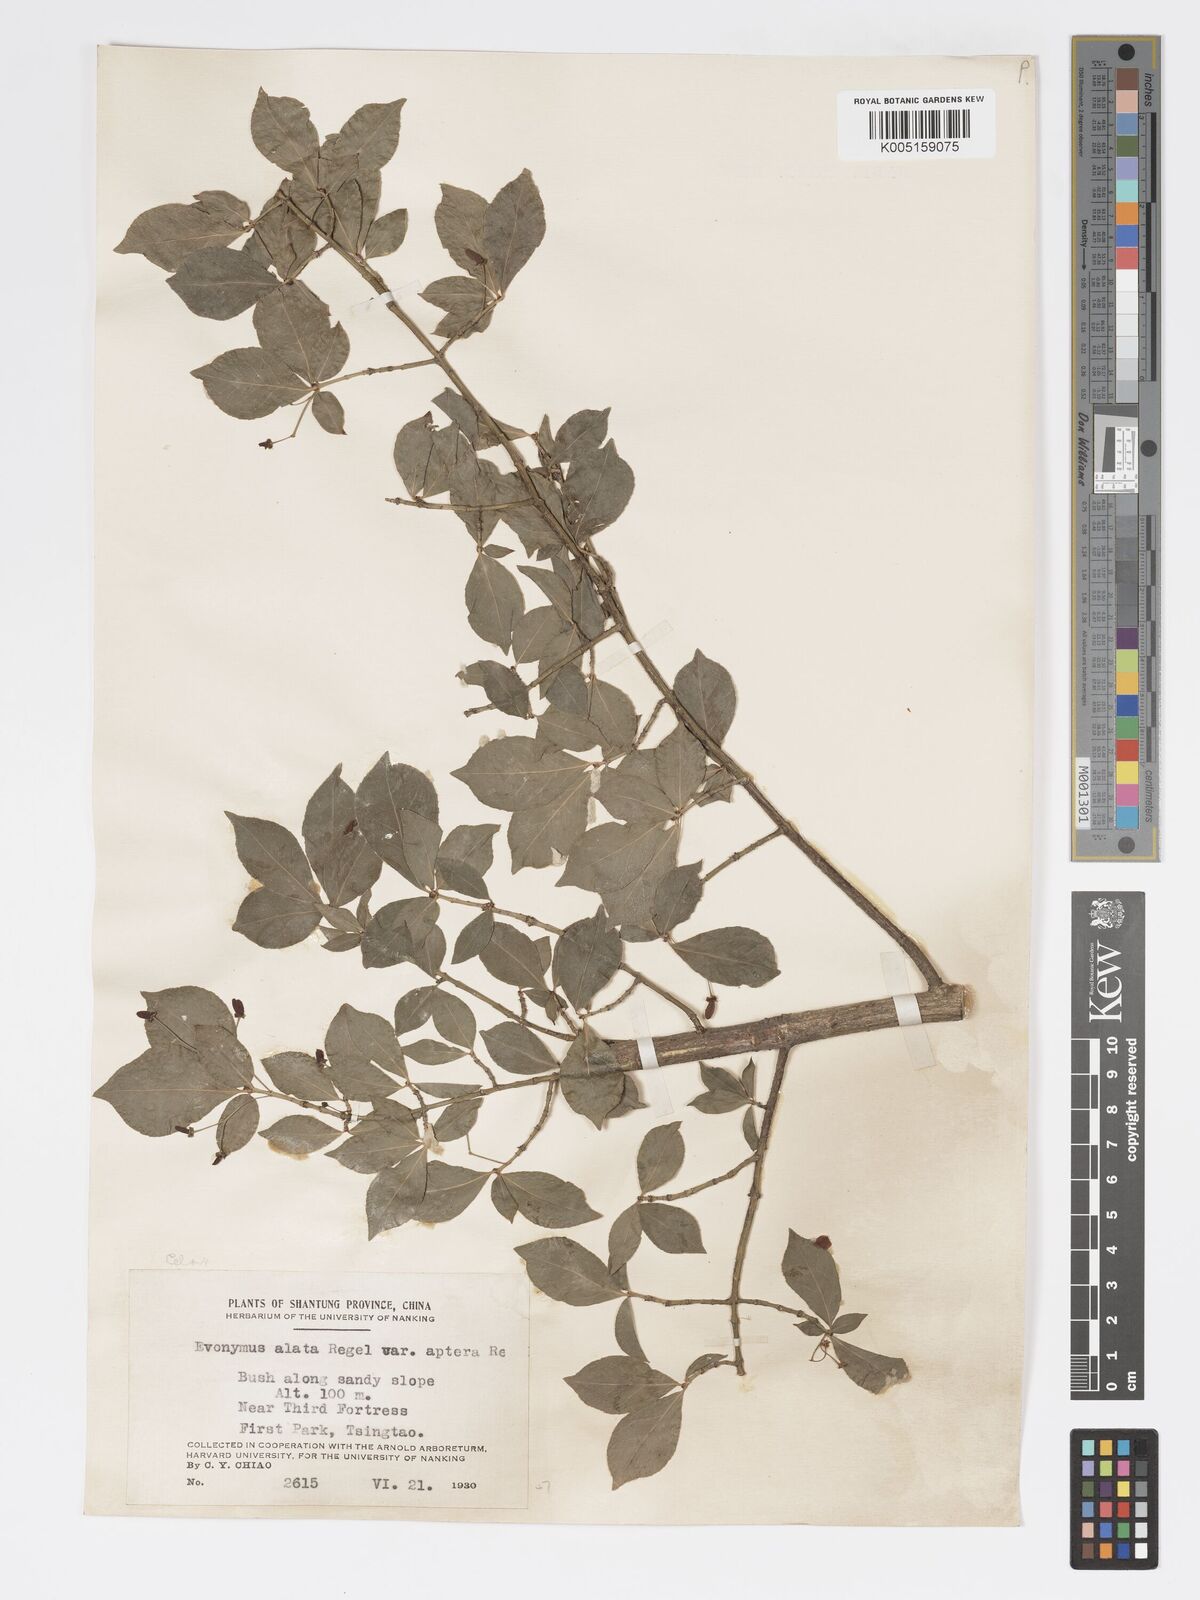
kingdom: Plantae
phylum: Tracheophyta
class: Magnoliopsida
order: Celastrales
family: Celastraceae
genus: Euonymus
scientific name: Euonymus
